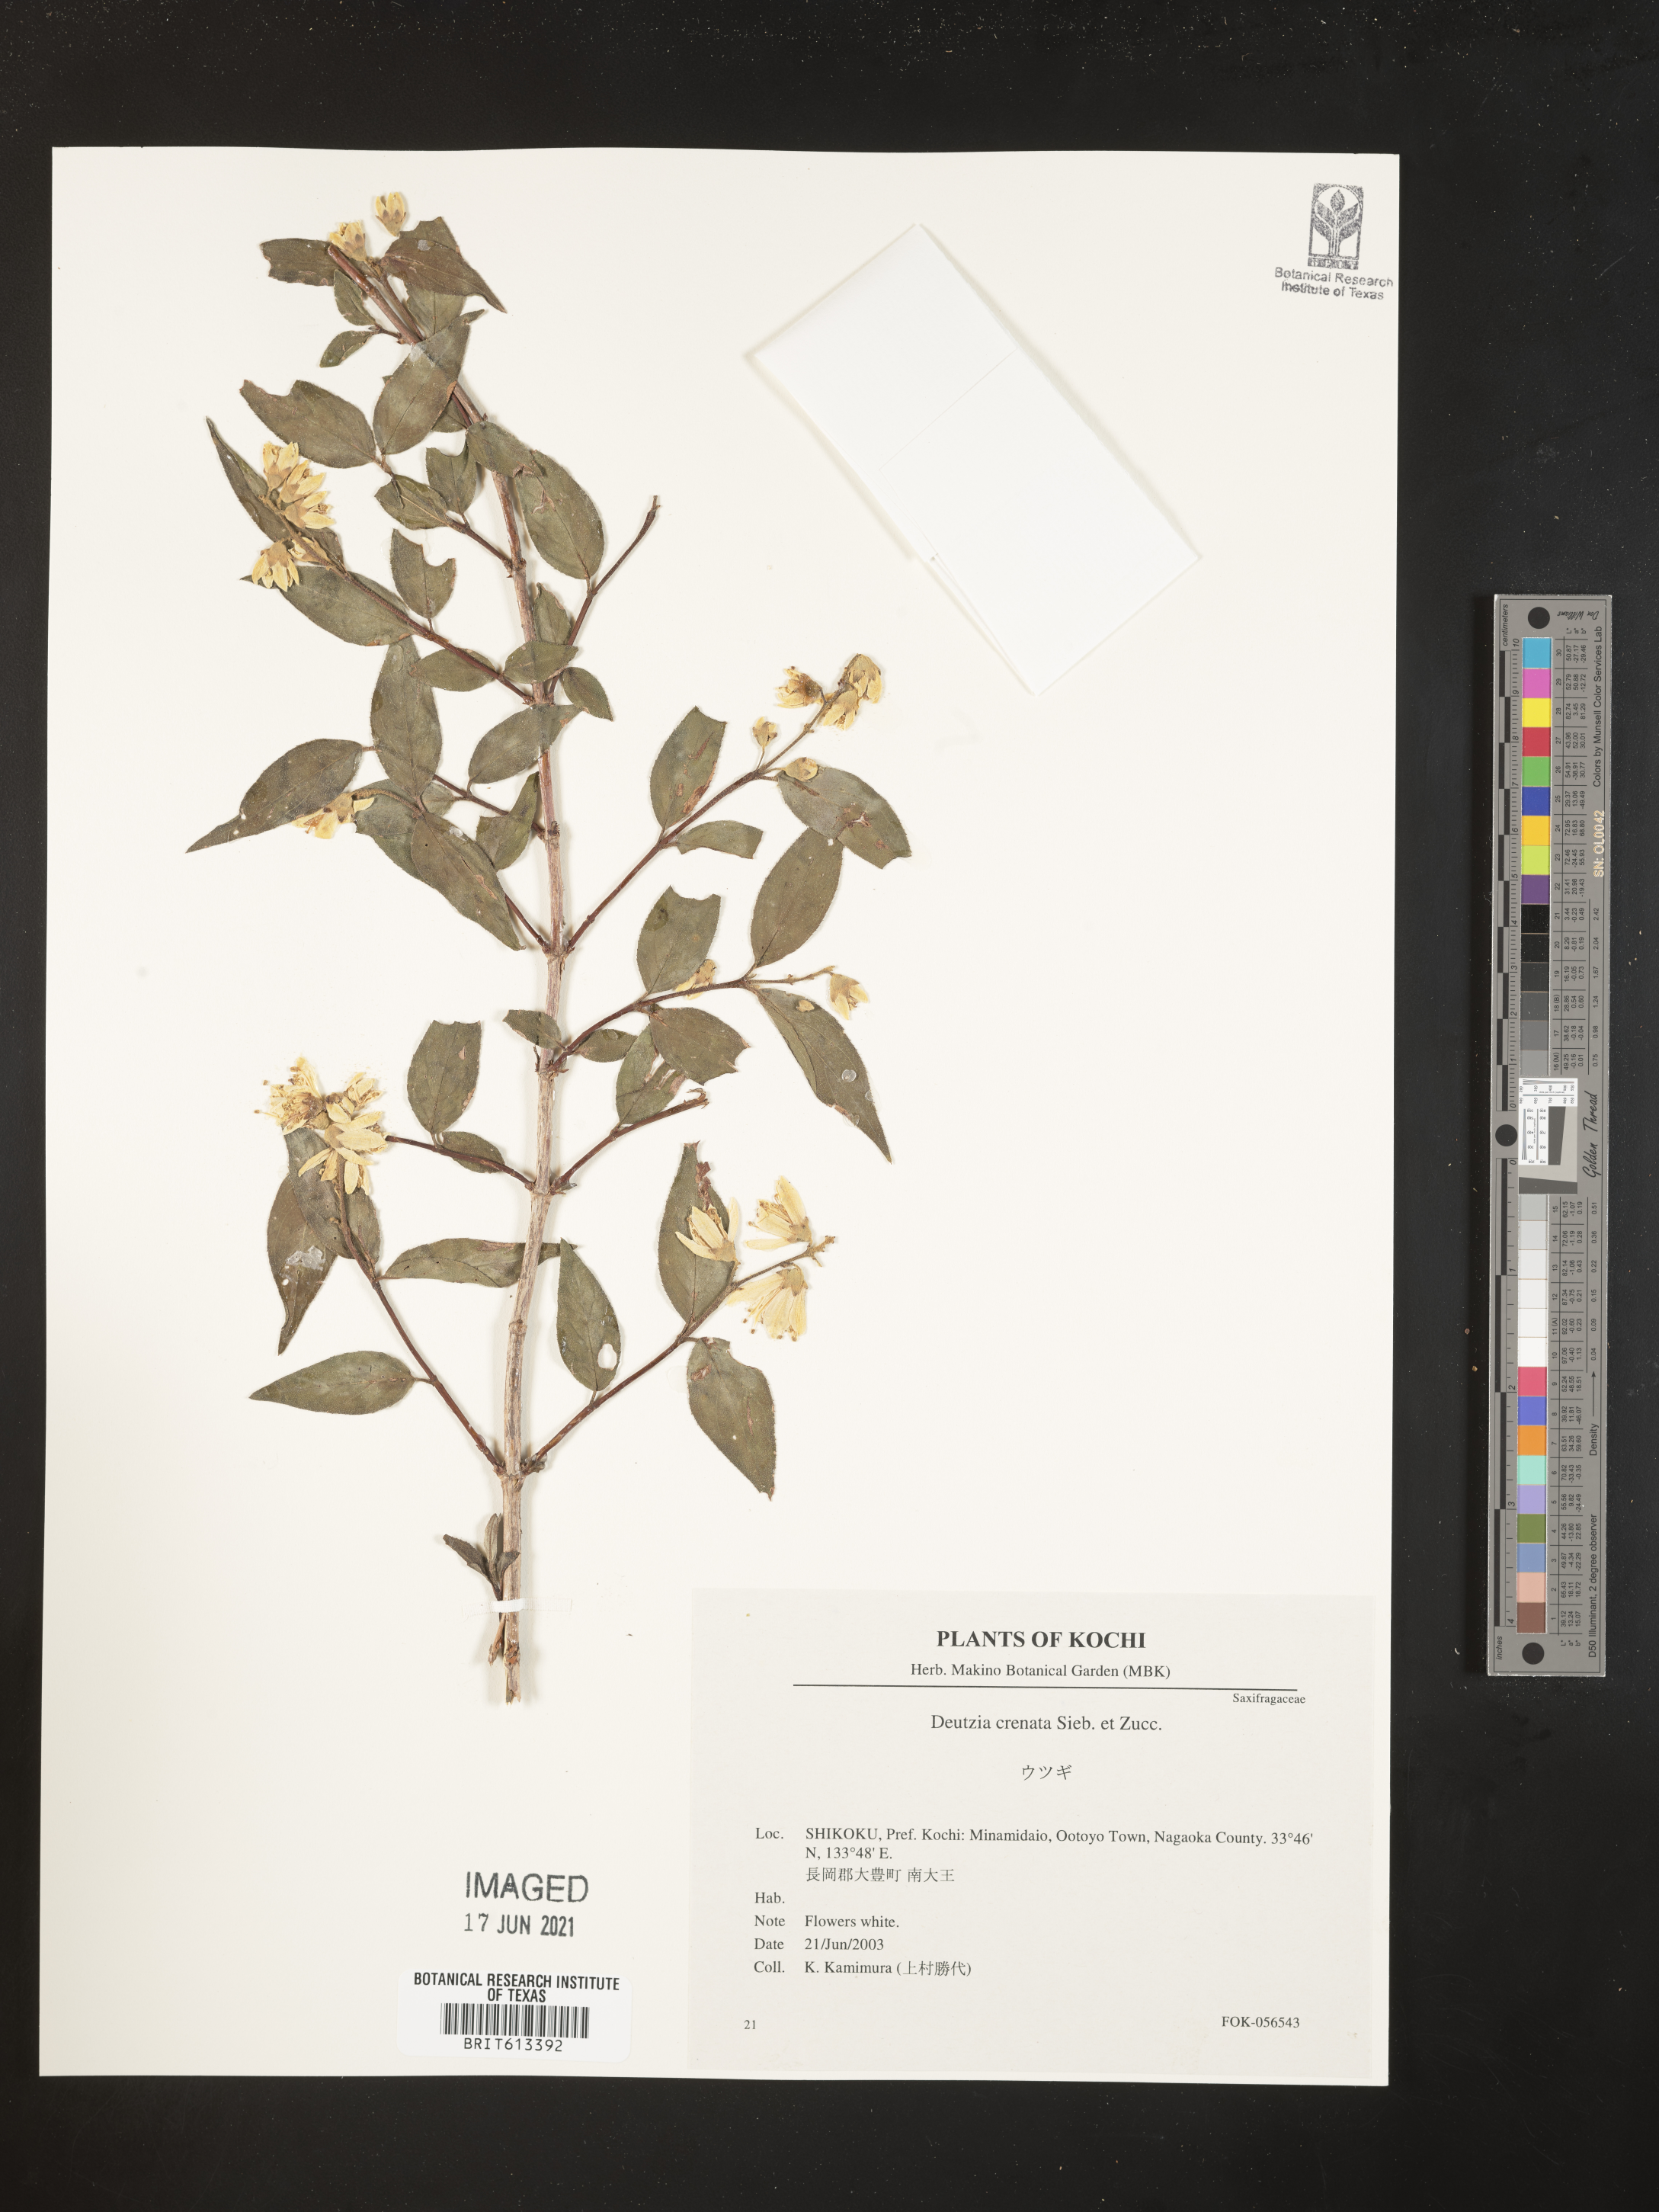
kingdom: Plantae
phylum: Tracheophyta
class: Magnoliopsida
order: Cornales
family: Hydrangeaceae
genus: Deutzia
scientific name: Deutzia crenata
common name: Deutzia
